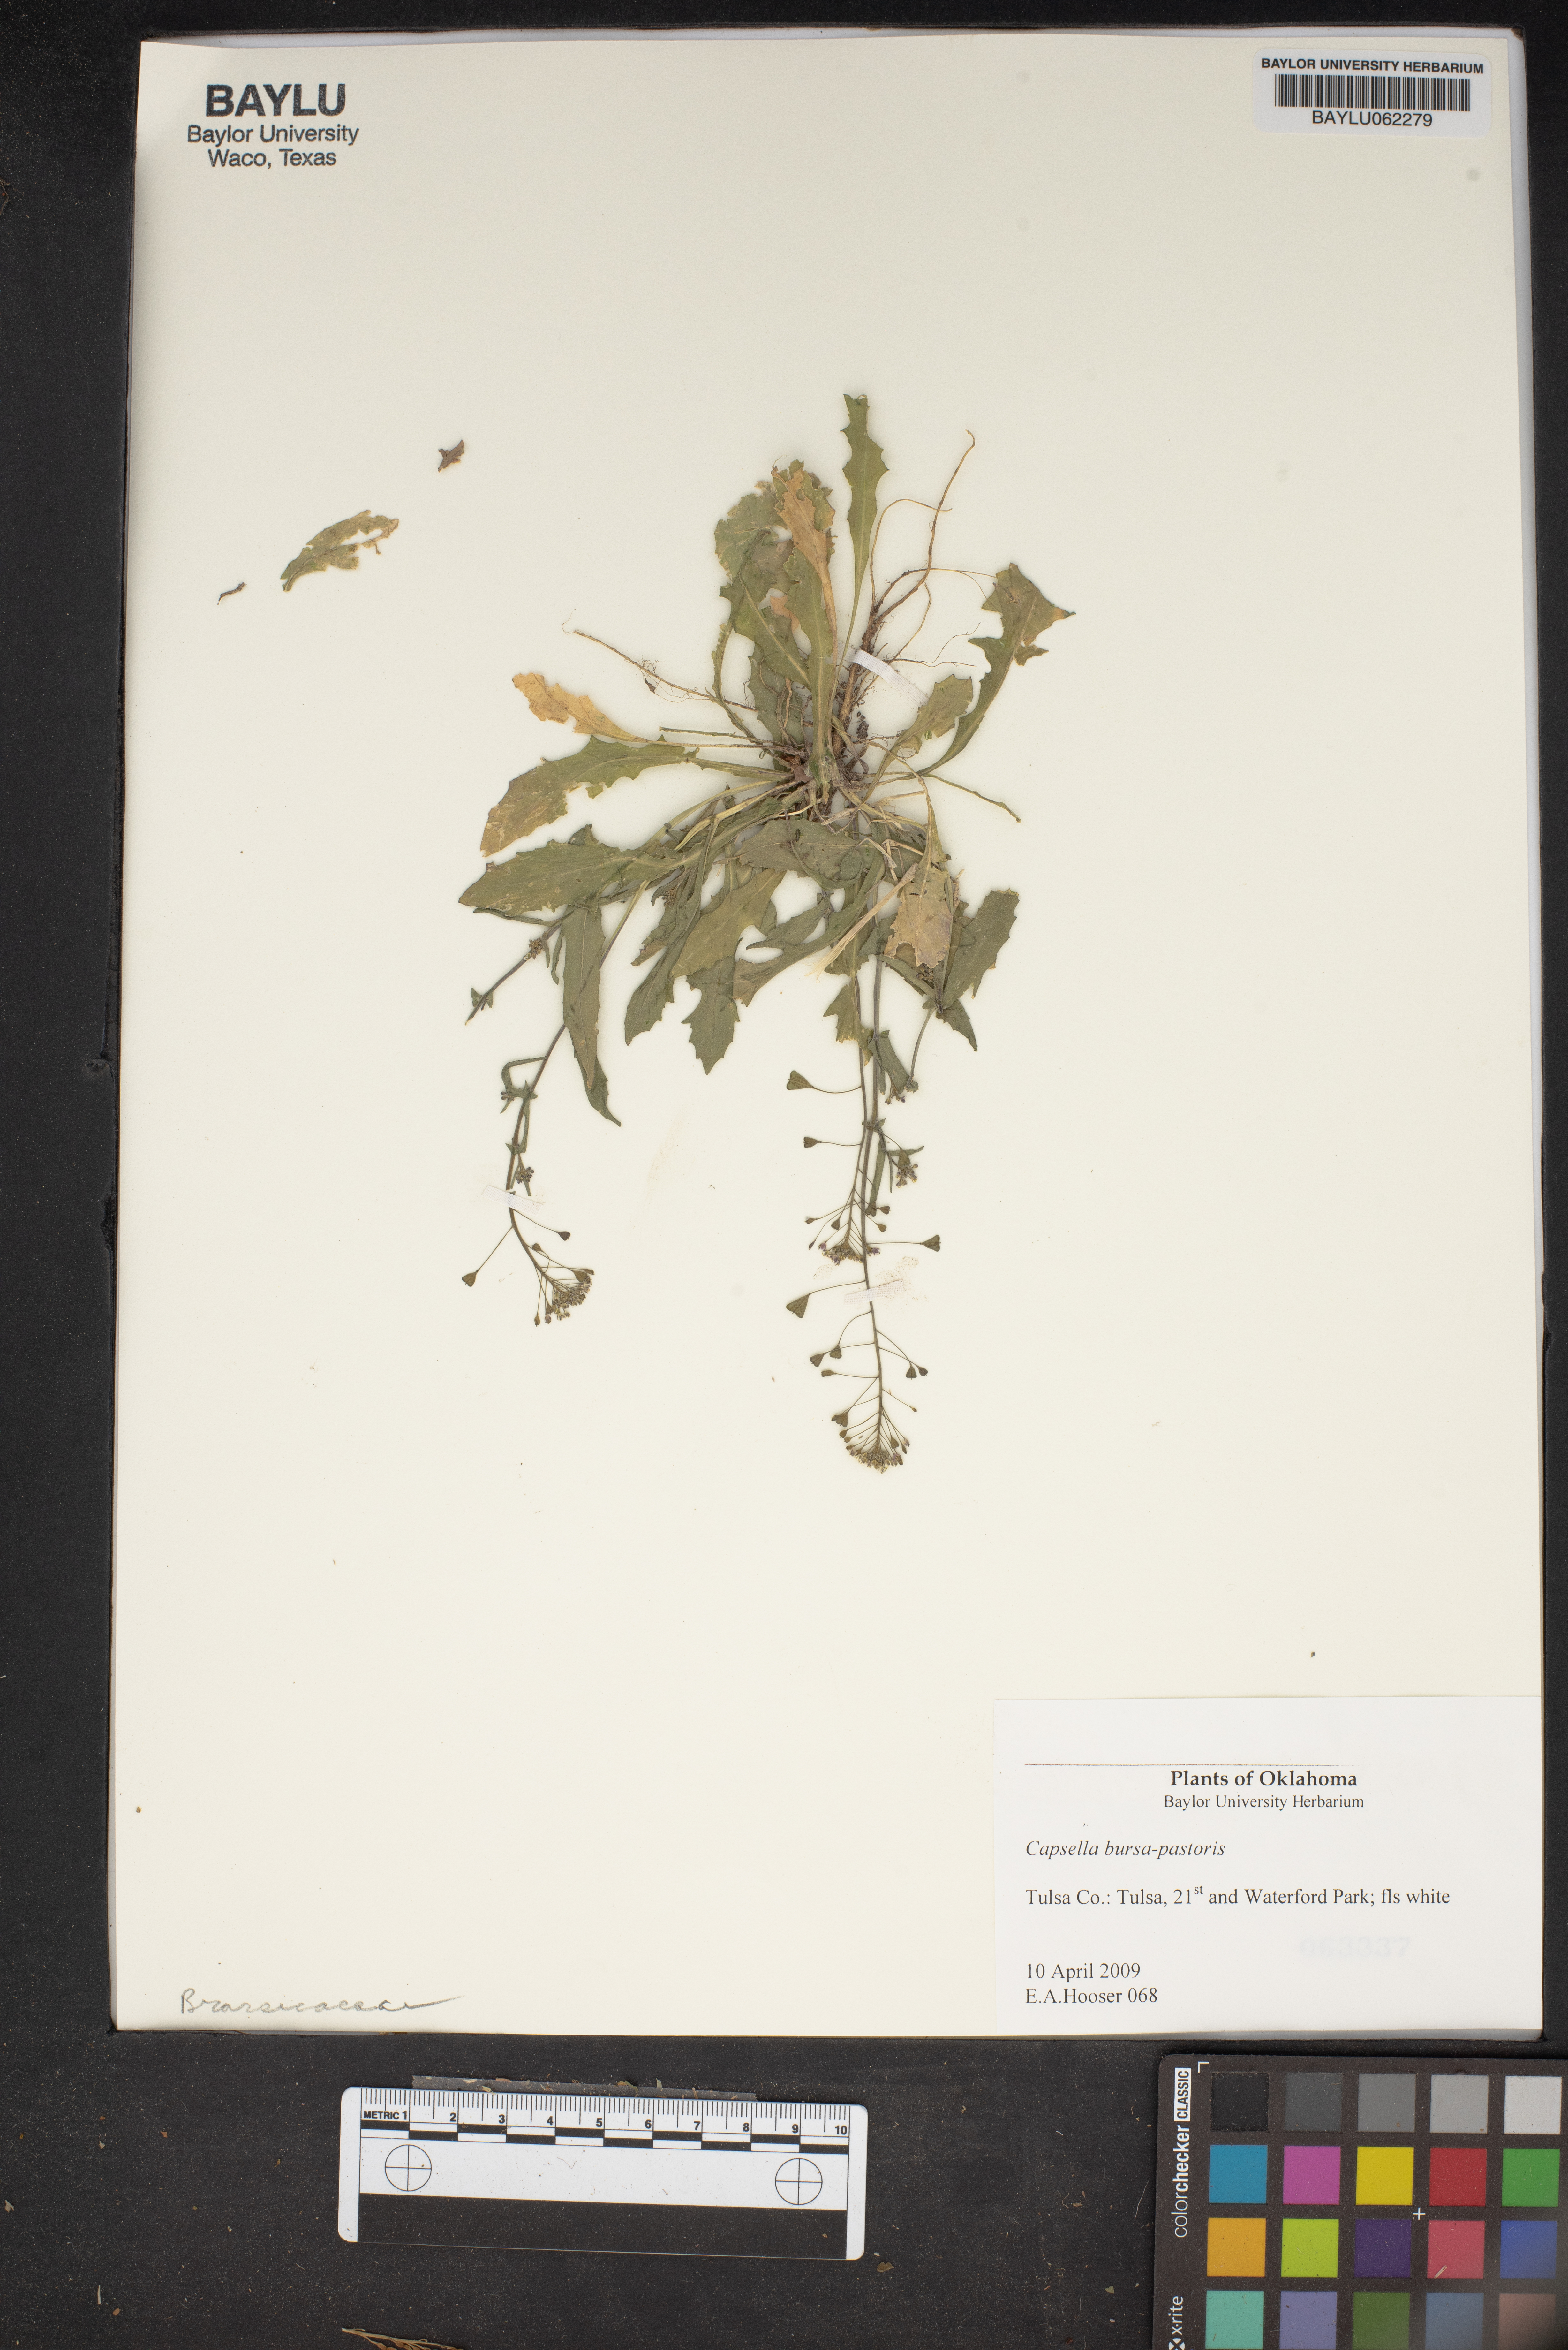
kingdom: Plantae
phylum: Tracheophyta
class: Magnoliopsida
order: Brassicales
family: Brassicaceae
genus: Capsella
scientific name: Capsella bursa-pastoris
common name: Shepherd's purse
